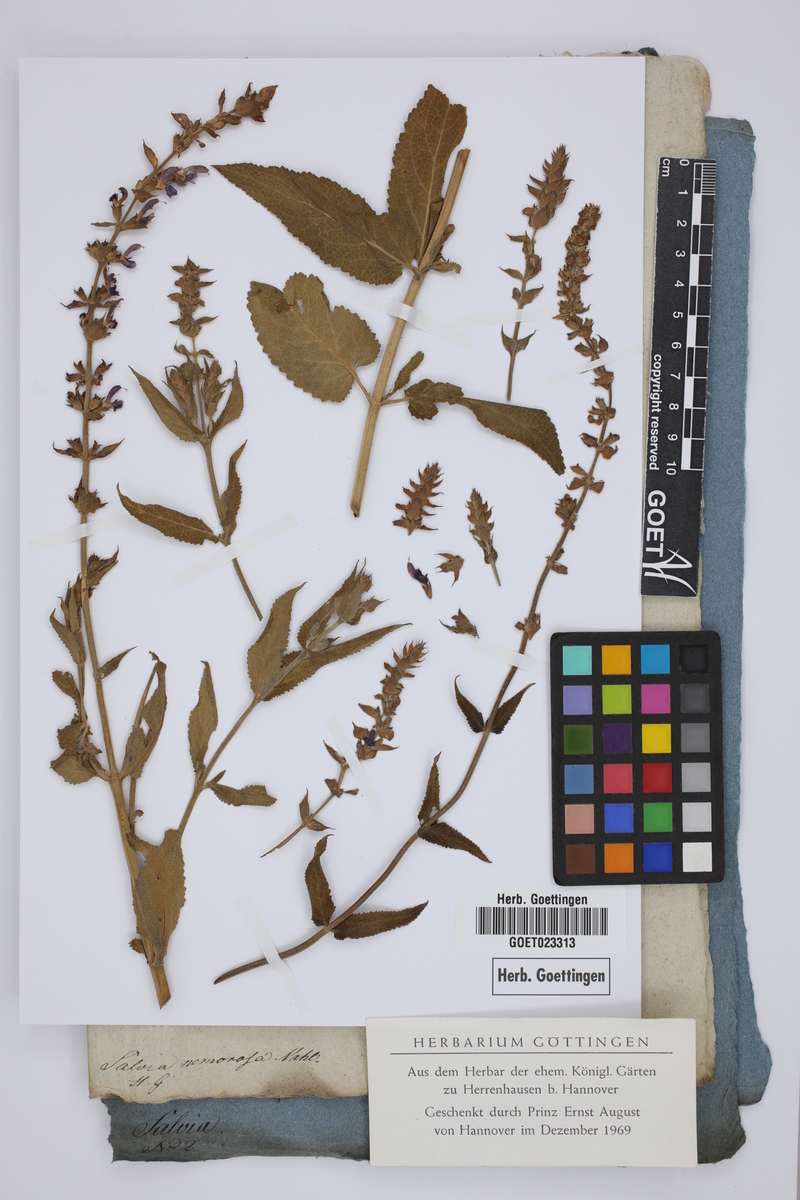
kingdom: Plantae
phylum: Tracheophyta
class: Magnoliopsida
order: Lamiales
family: Lamiaceae
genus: Salvia
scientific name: Salvia nemorosa
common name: Balkan clary
